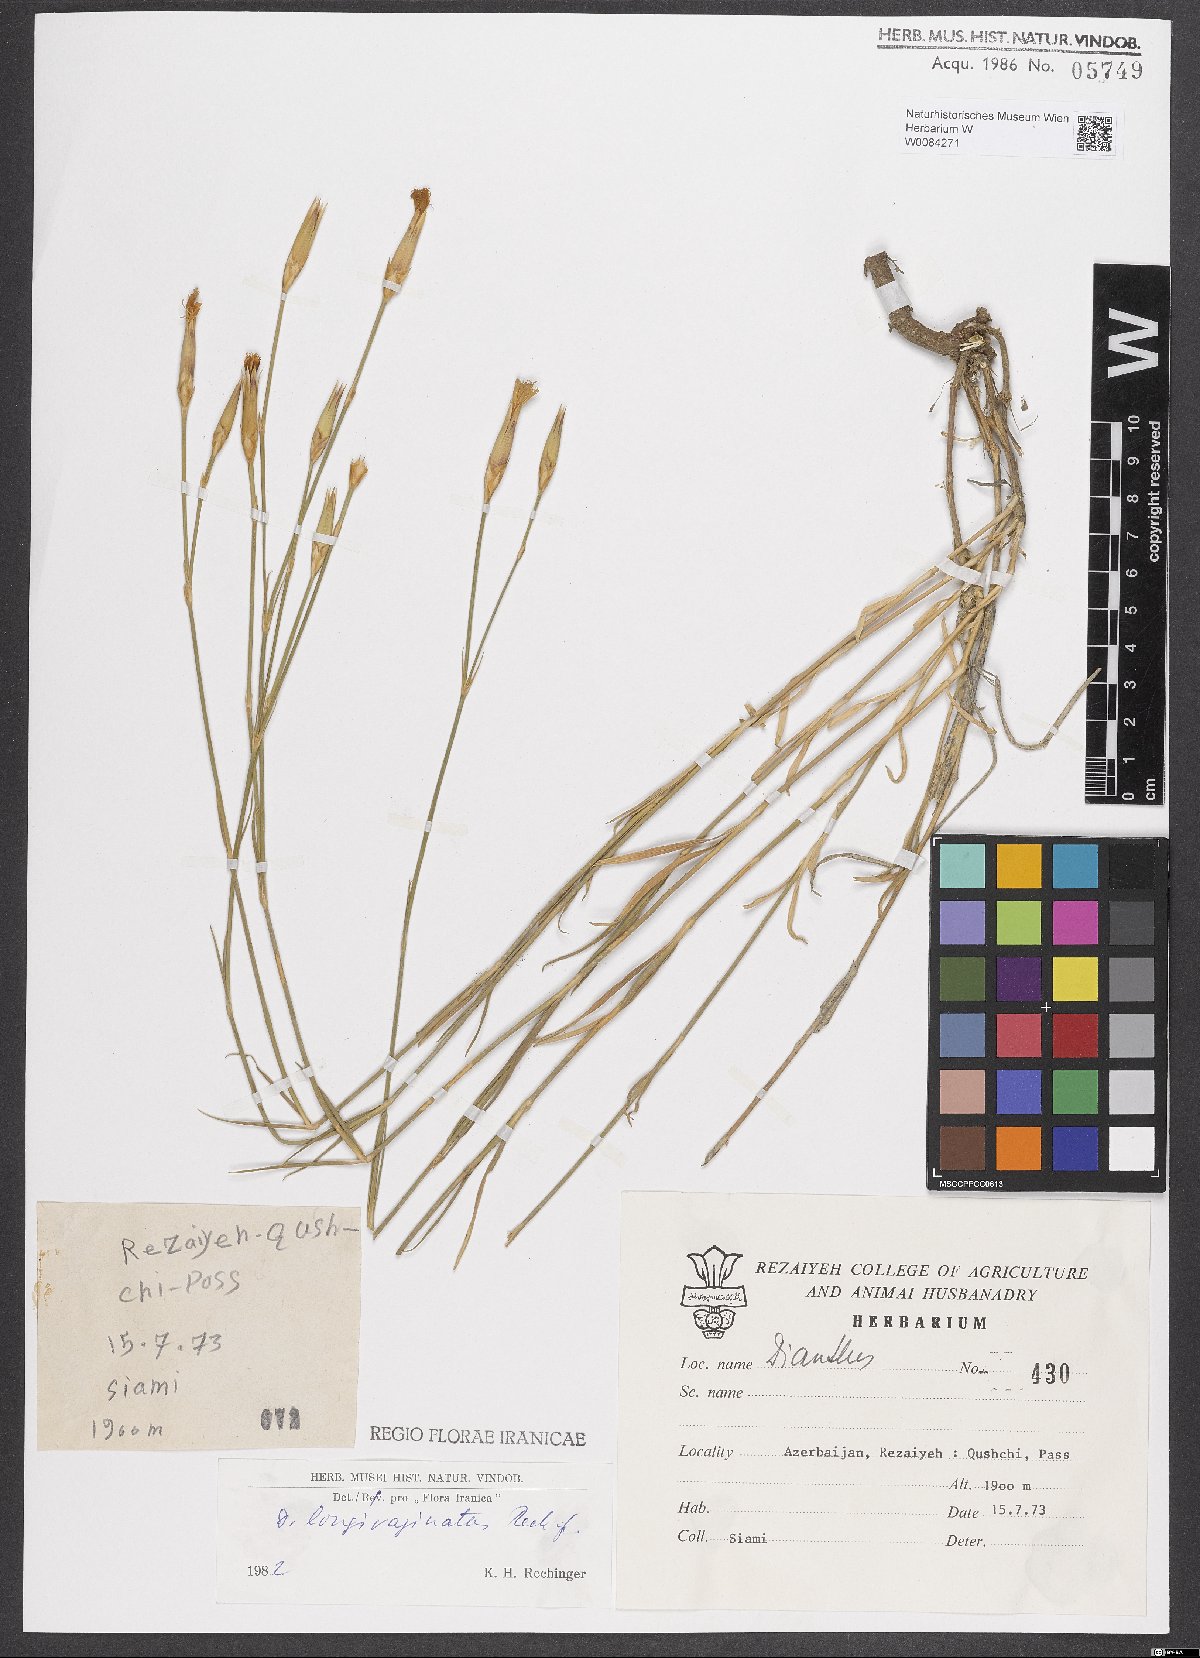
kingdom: Plantae
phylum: Tracheophyta
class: Magnoliopsida
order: Caryophyllales
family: Caryophyllaceae
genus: Dianthus
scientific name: Dianthus longivaginatus
